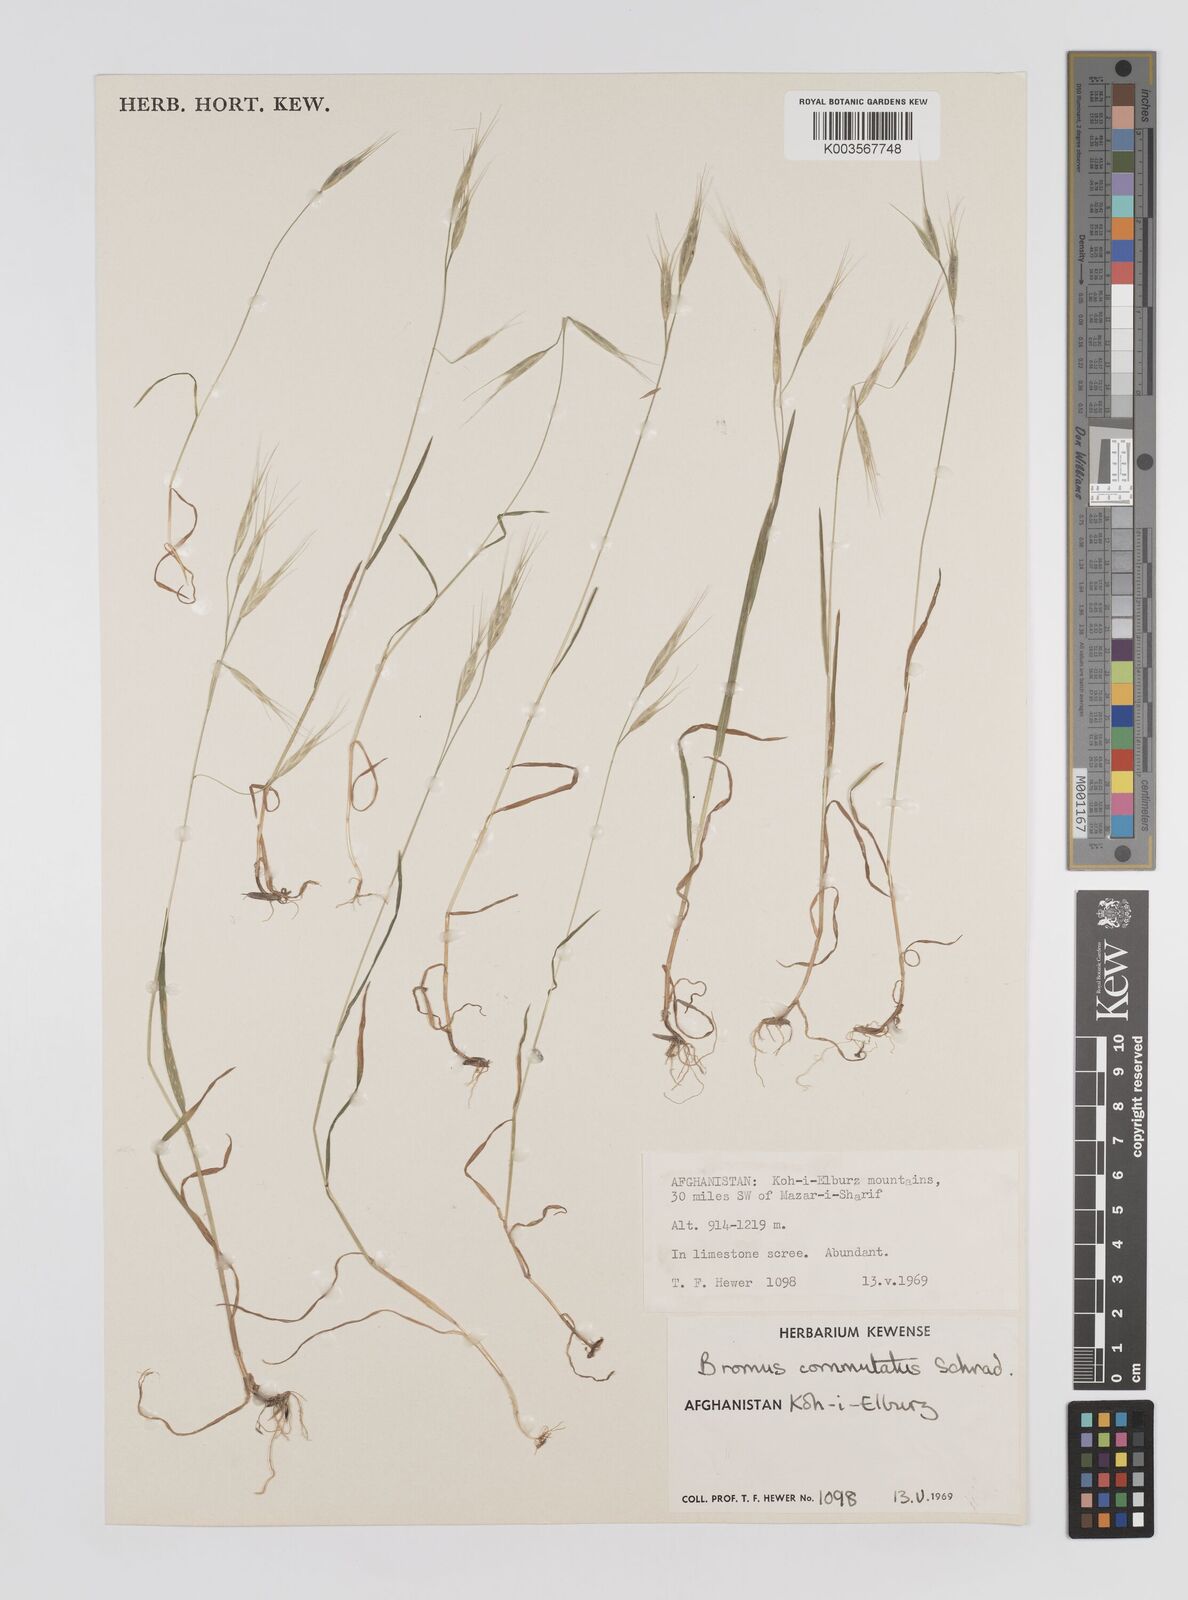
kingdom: Plantae
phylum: Tracheophyta
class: Liliopsida
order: Poales
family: Poaceae
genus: Bromus
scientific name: Bromus
